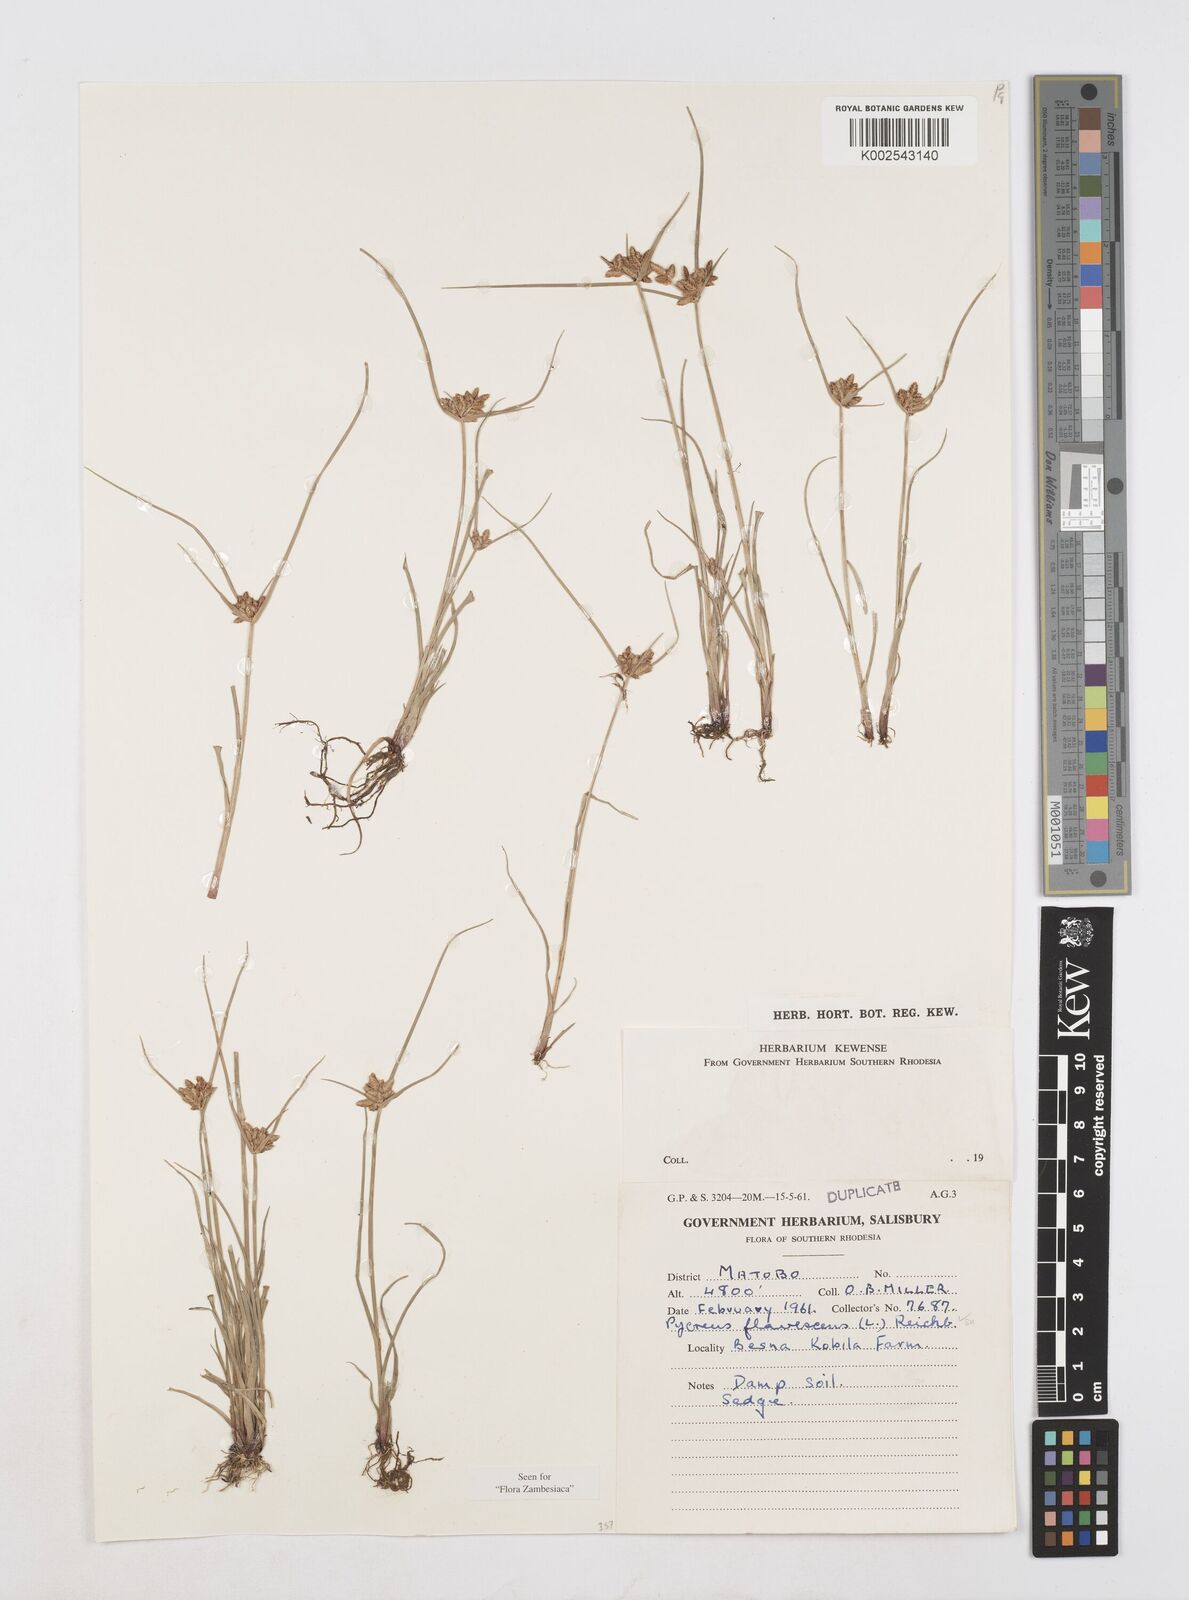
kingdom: Plantae
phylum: Tracheophyta
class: Liliopsida
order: Poales
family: Cyperaceae
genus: Cyperus
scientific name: Cyperus flavescens
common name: Yellow galingale
